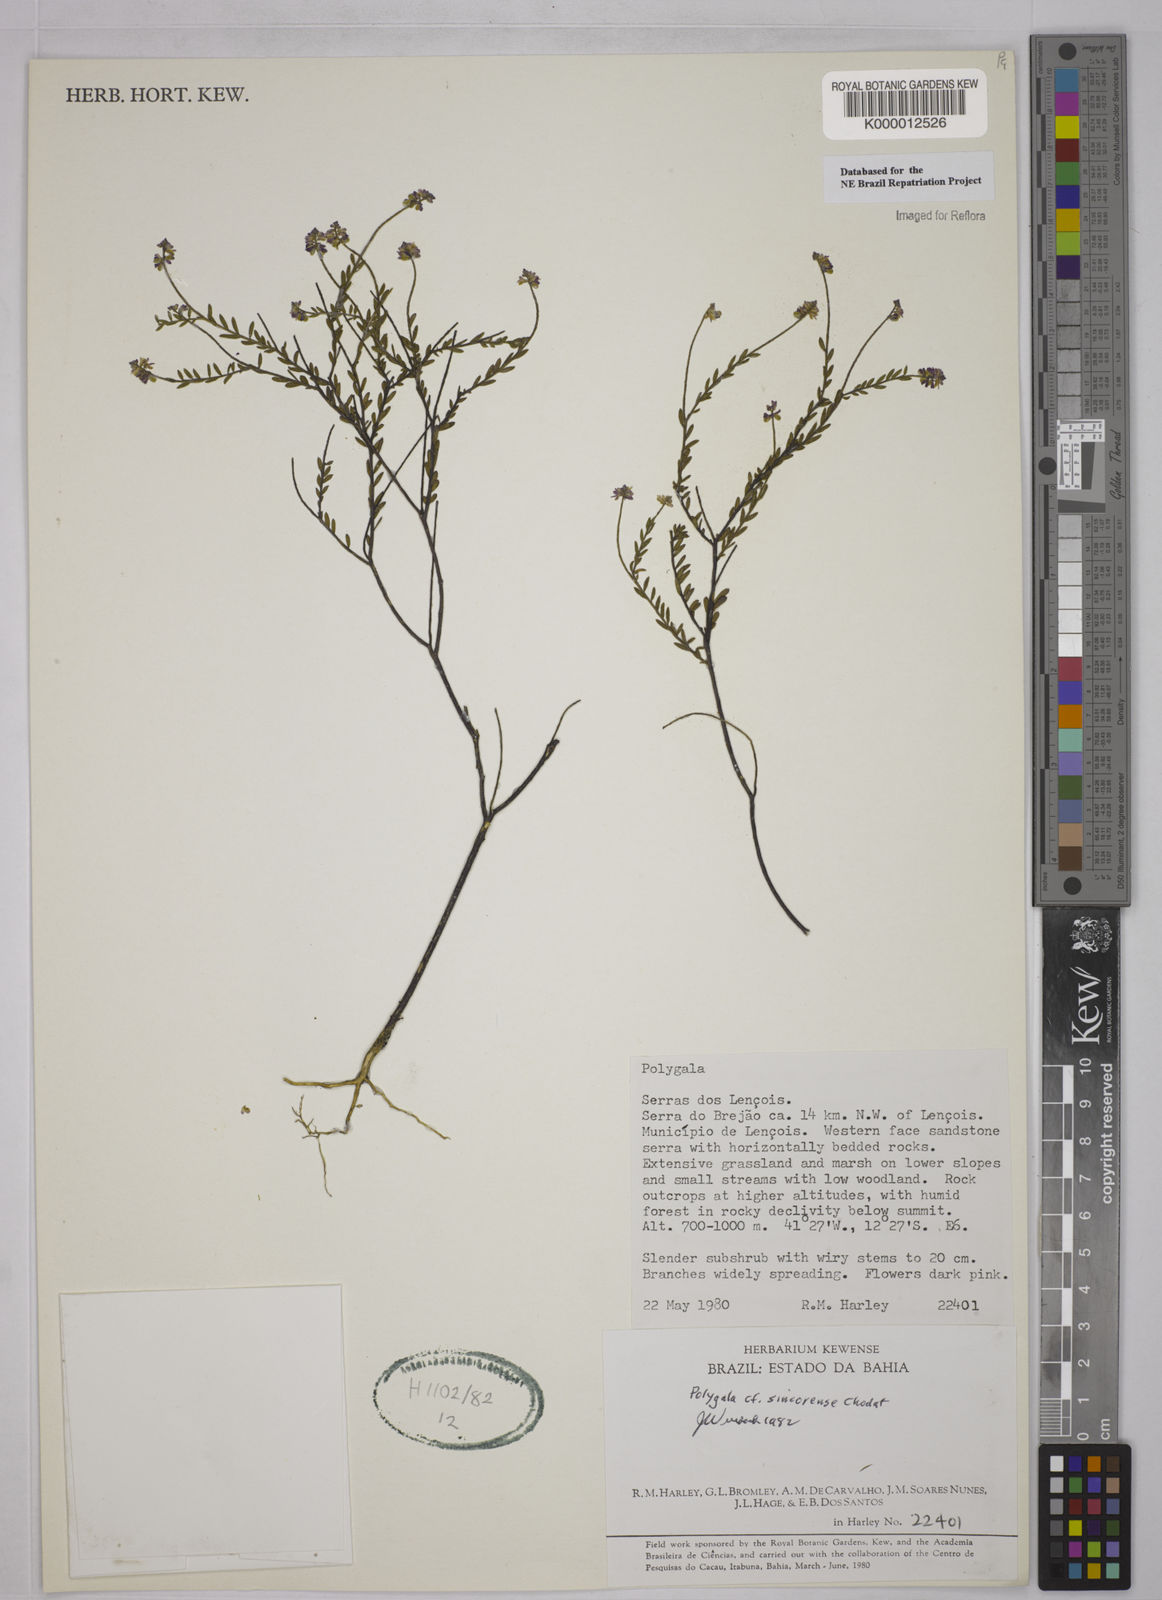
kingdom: Plantae
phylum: Tracheophyta
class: Magnoliopsida
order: Fabales
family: Polygalaceae
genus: Polygala
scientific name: Polygala sincorensis
